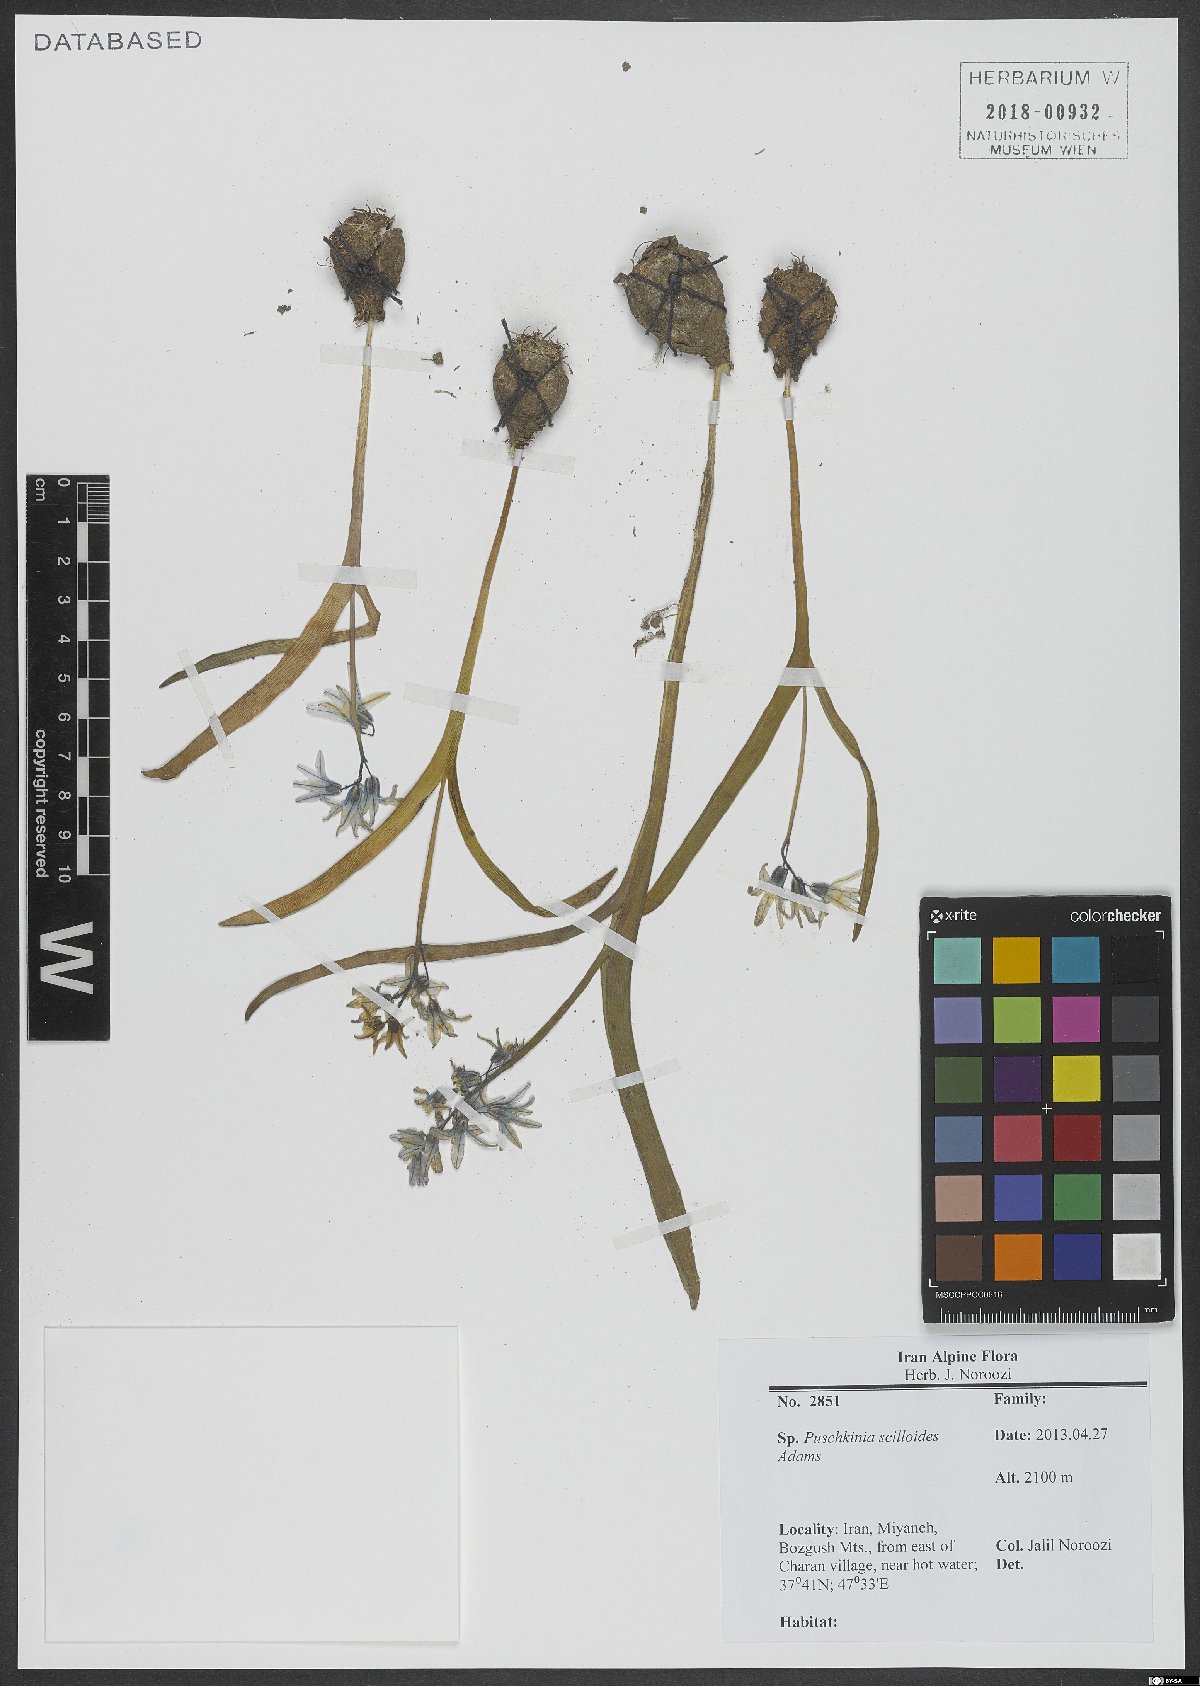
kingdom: Plantae
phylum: Tracheophyta
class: Liliopsida
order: Asparagales
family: Asparagaceae
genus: Puschkinia
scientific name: Puschkinia scilloides
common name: Striped squill
